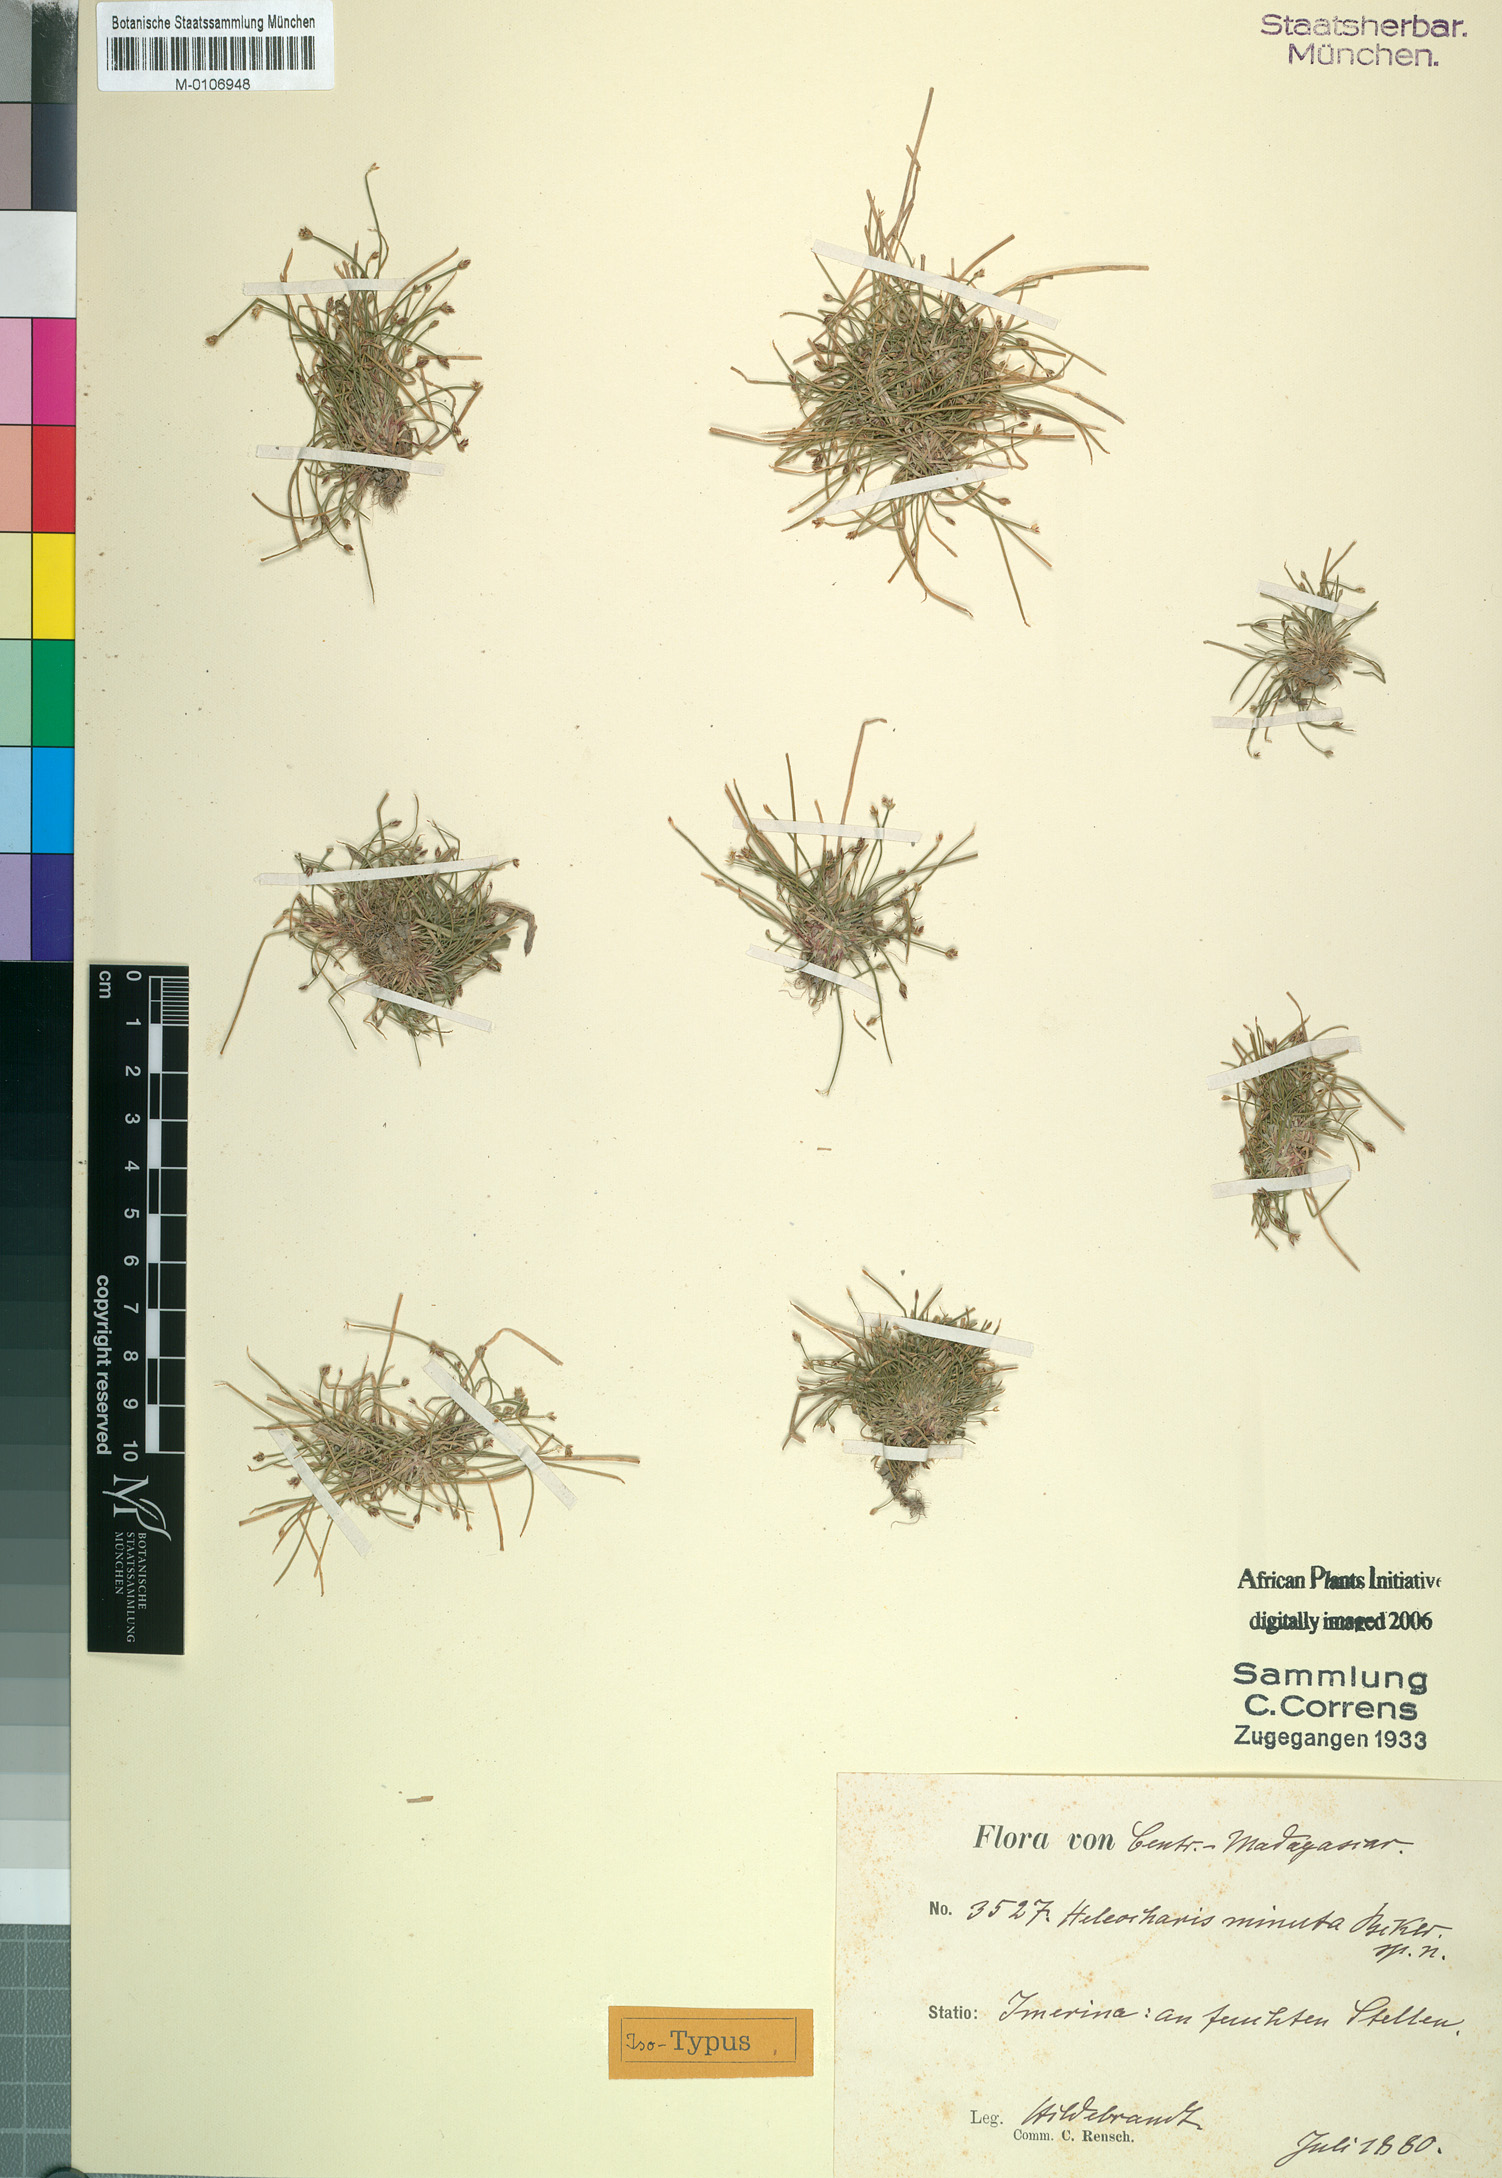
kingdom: Plantae
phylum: Tracheophyta
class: Liliopsida
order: Poales
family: Cyperaceae
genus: Eleocharis
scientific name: Eleocharis minuta
